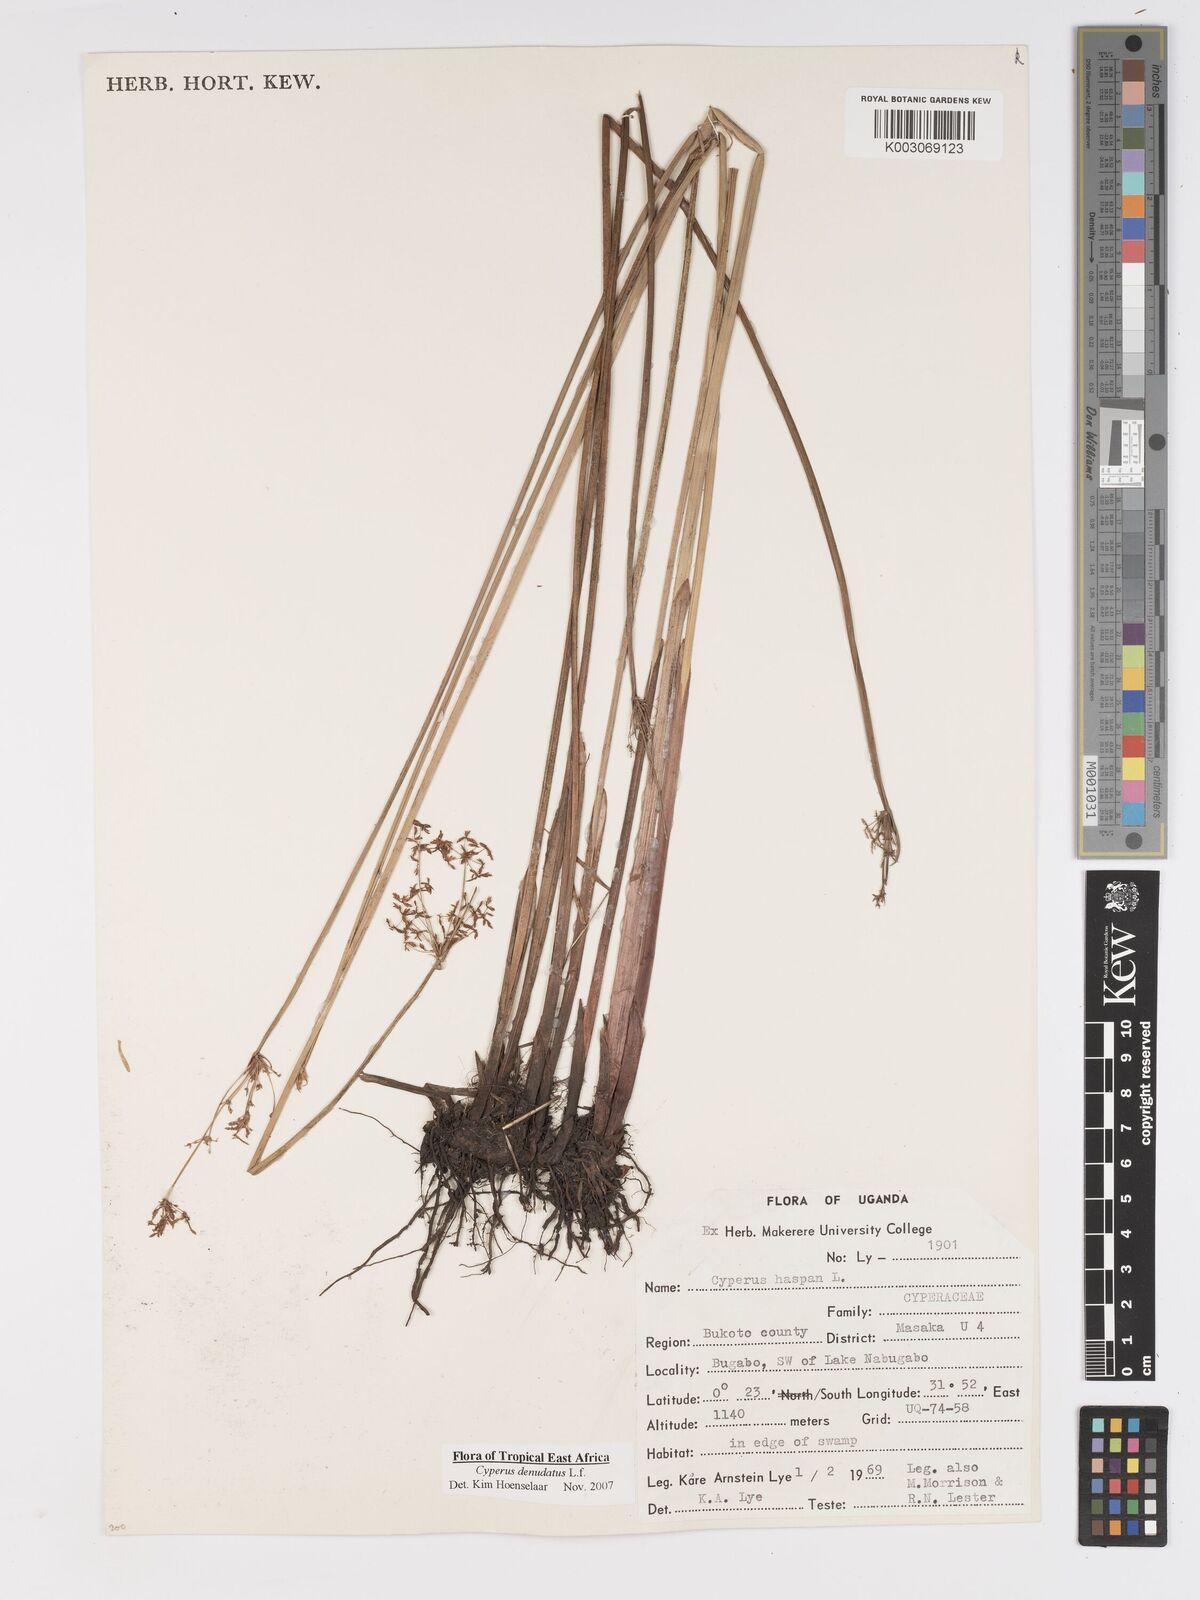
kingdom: Plantae
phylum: Tracheophyta
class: Liliopsida
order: Poales
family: Cyperaceae
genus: Cyperus
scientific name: Cyperus platycaulis
